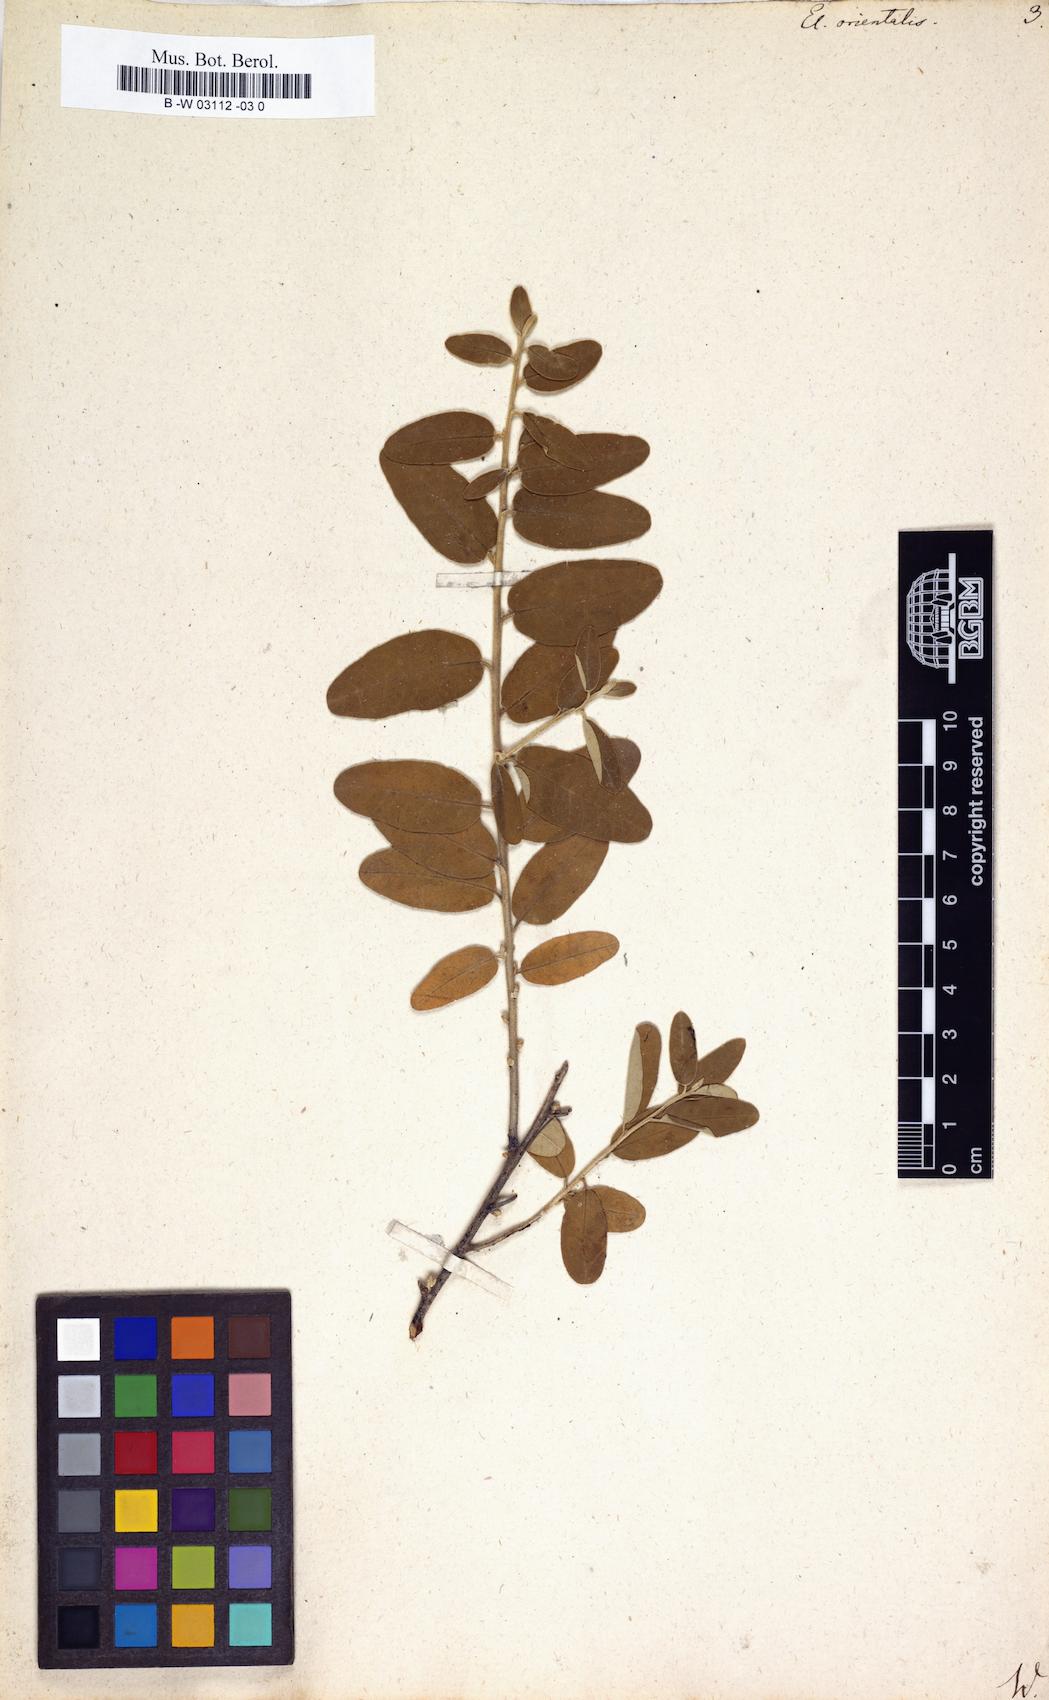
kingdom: Plantae
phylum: Tracheophyta
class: Magnoliopsida
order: Rosales
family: Elaeagnaceae
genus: Elaeagnus
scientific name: Elaeagnus angustifolia
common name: Russian olive
